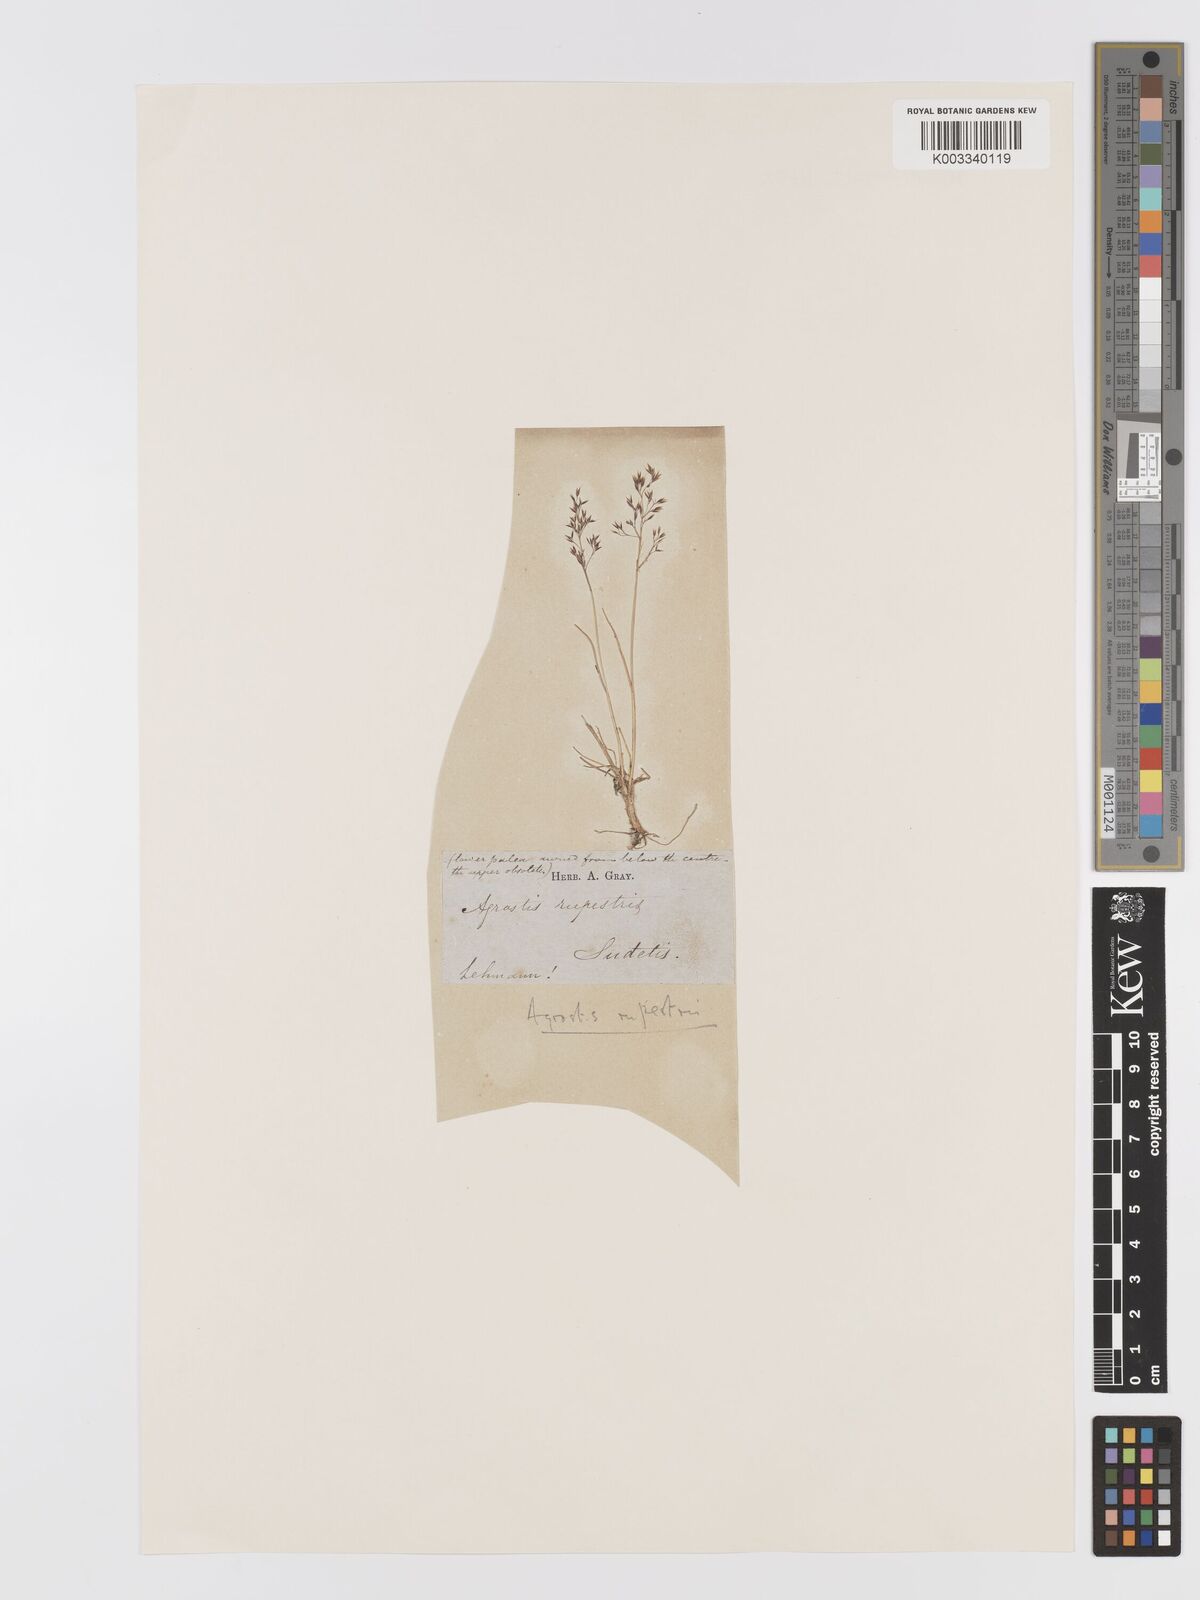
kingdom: Plantae
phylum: Tracheophyta
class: Liliopsida
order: Poales
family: Poaceae
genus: Agrostis
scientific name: Agrostis rupestris
